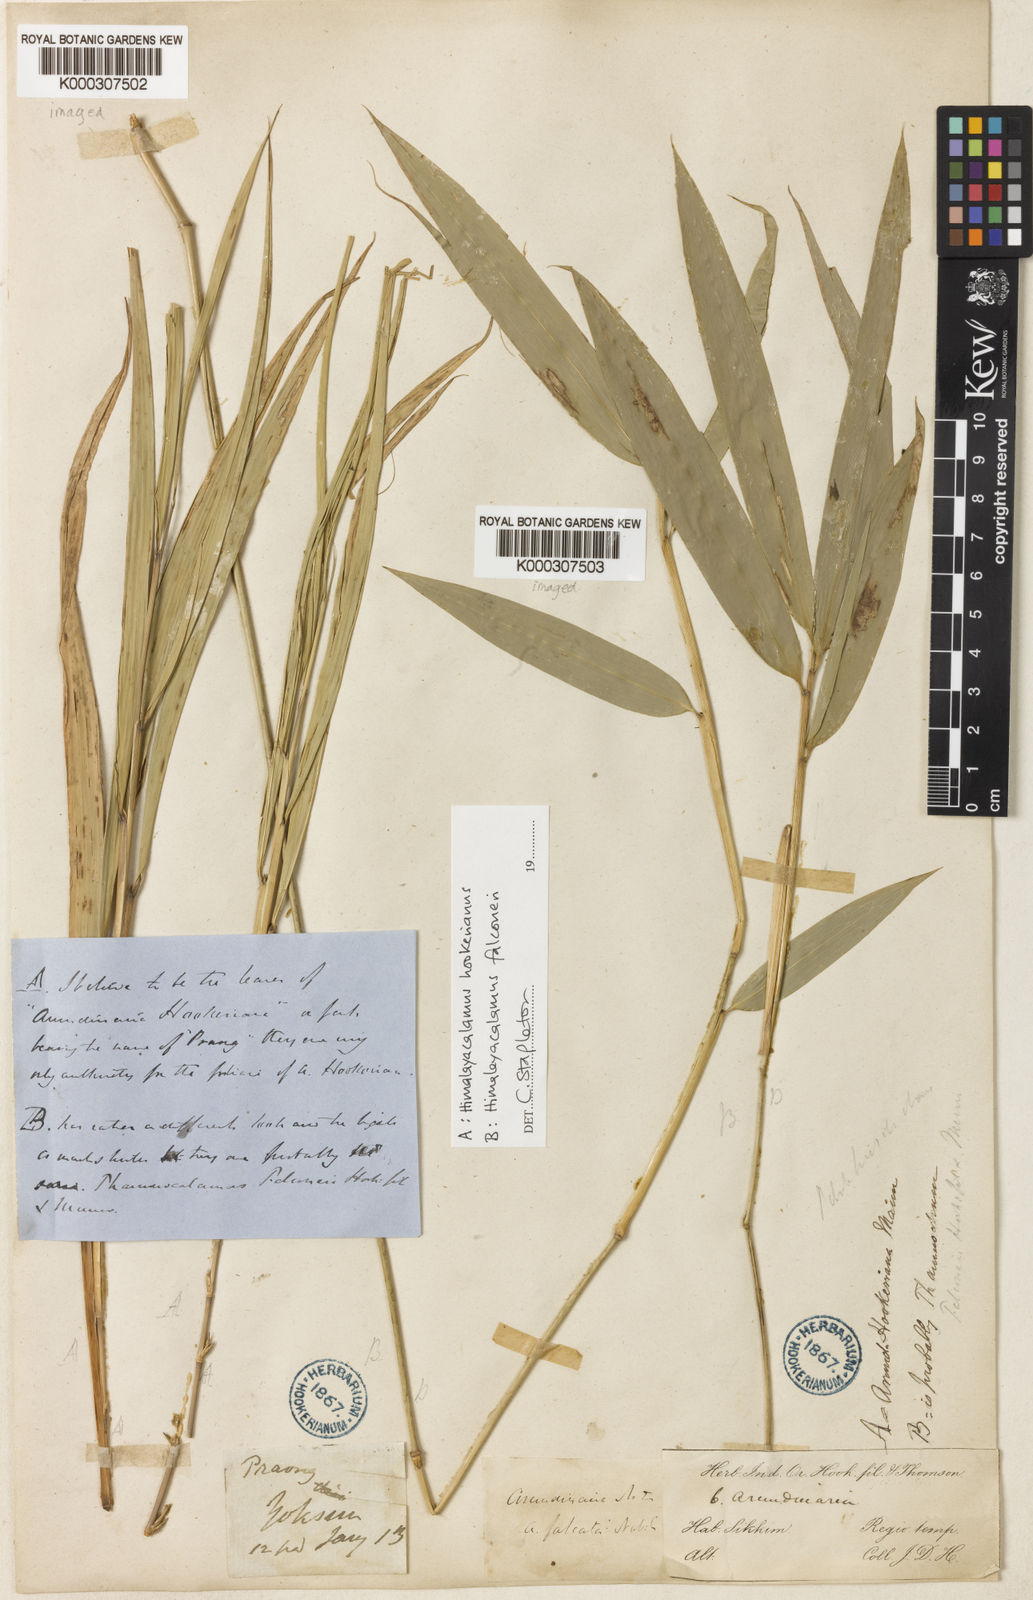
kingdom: Plantae
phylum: Tracheophyta
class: Liliopsida
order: Poales
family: Poaceae
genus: Himalayacalamus
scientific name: Himalayacalamus hookerianus
